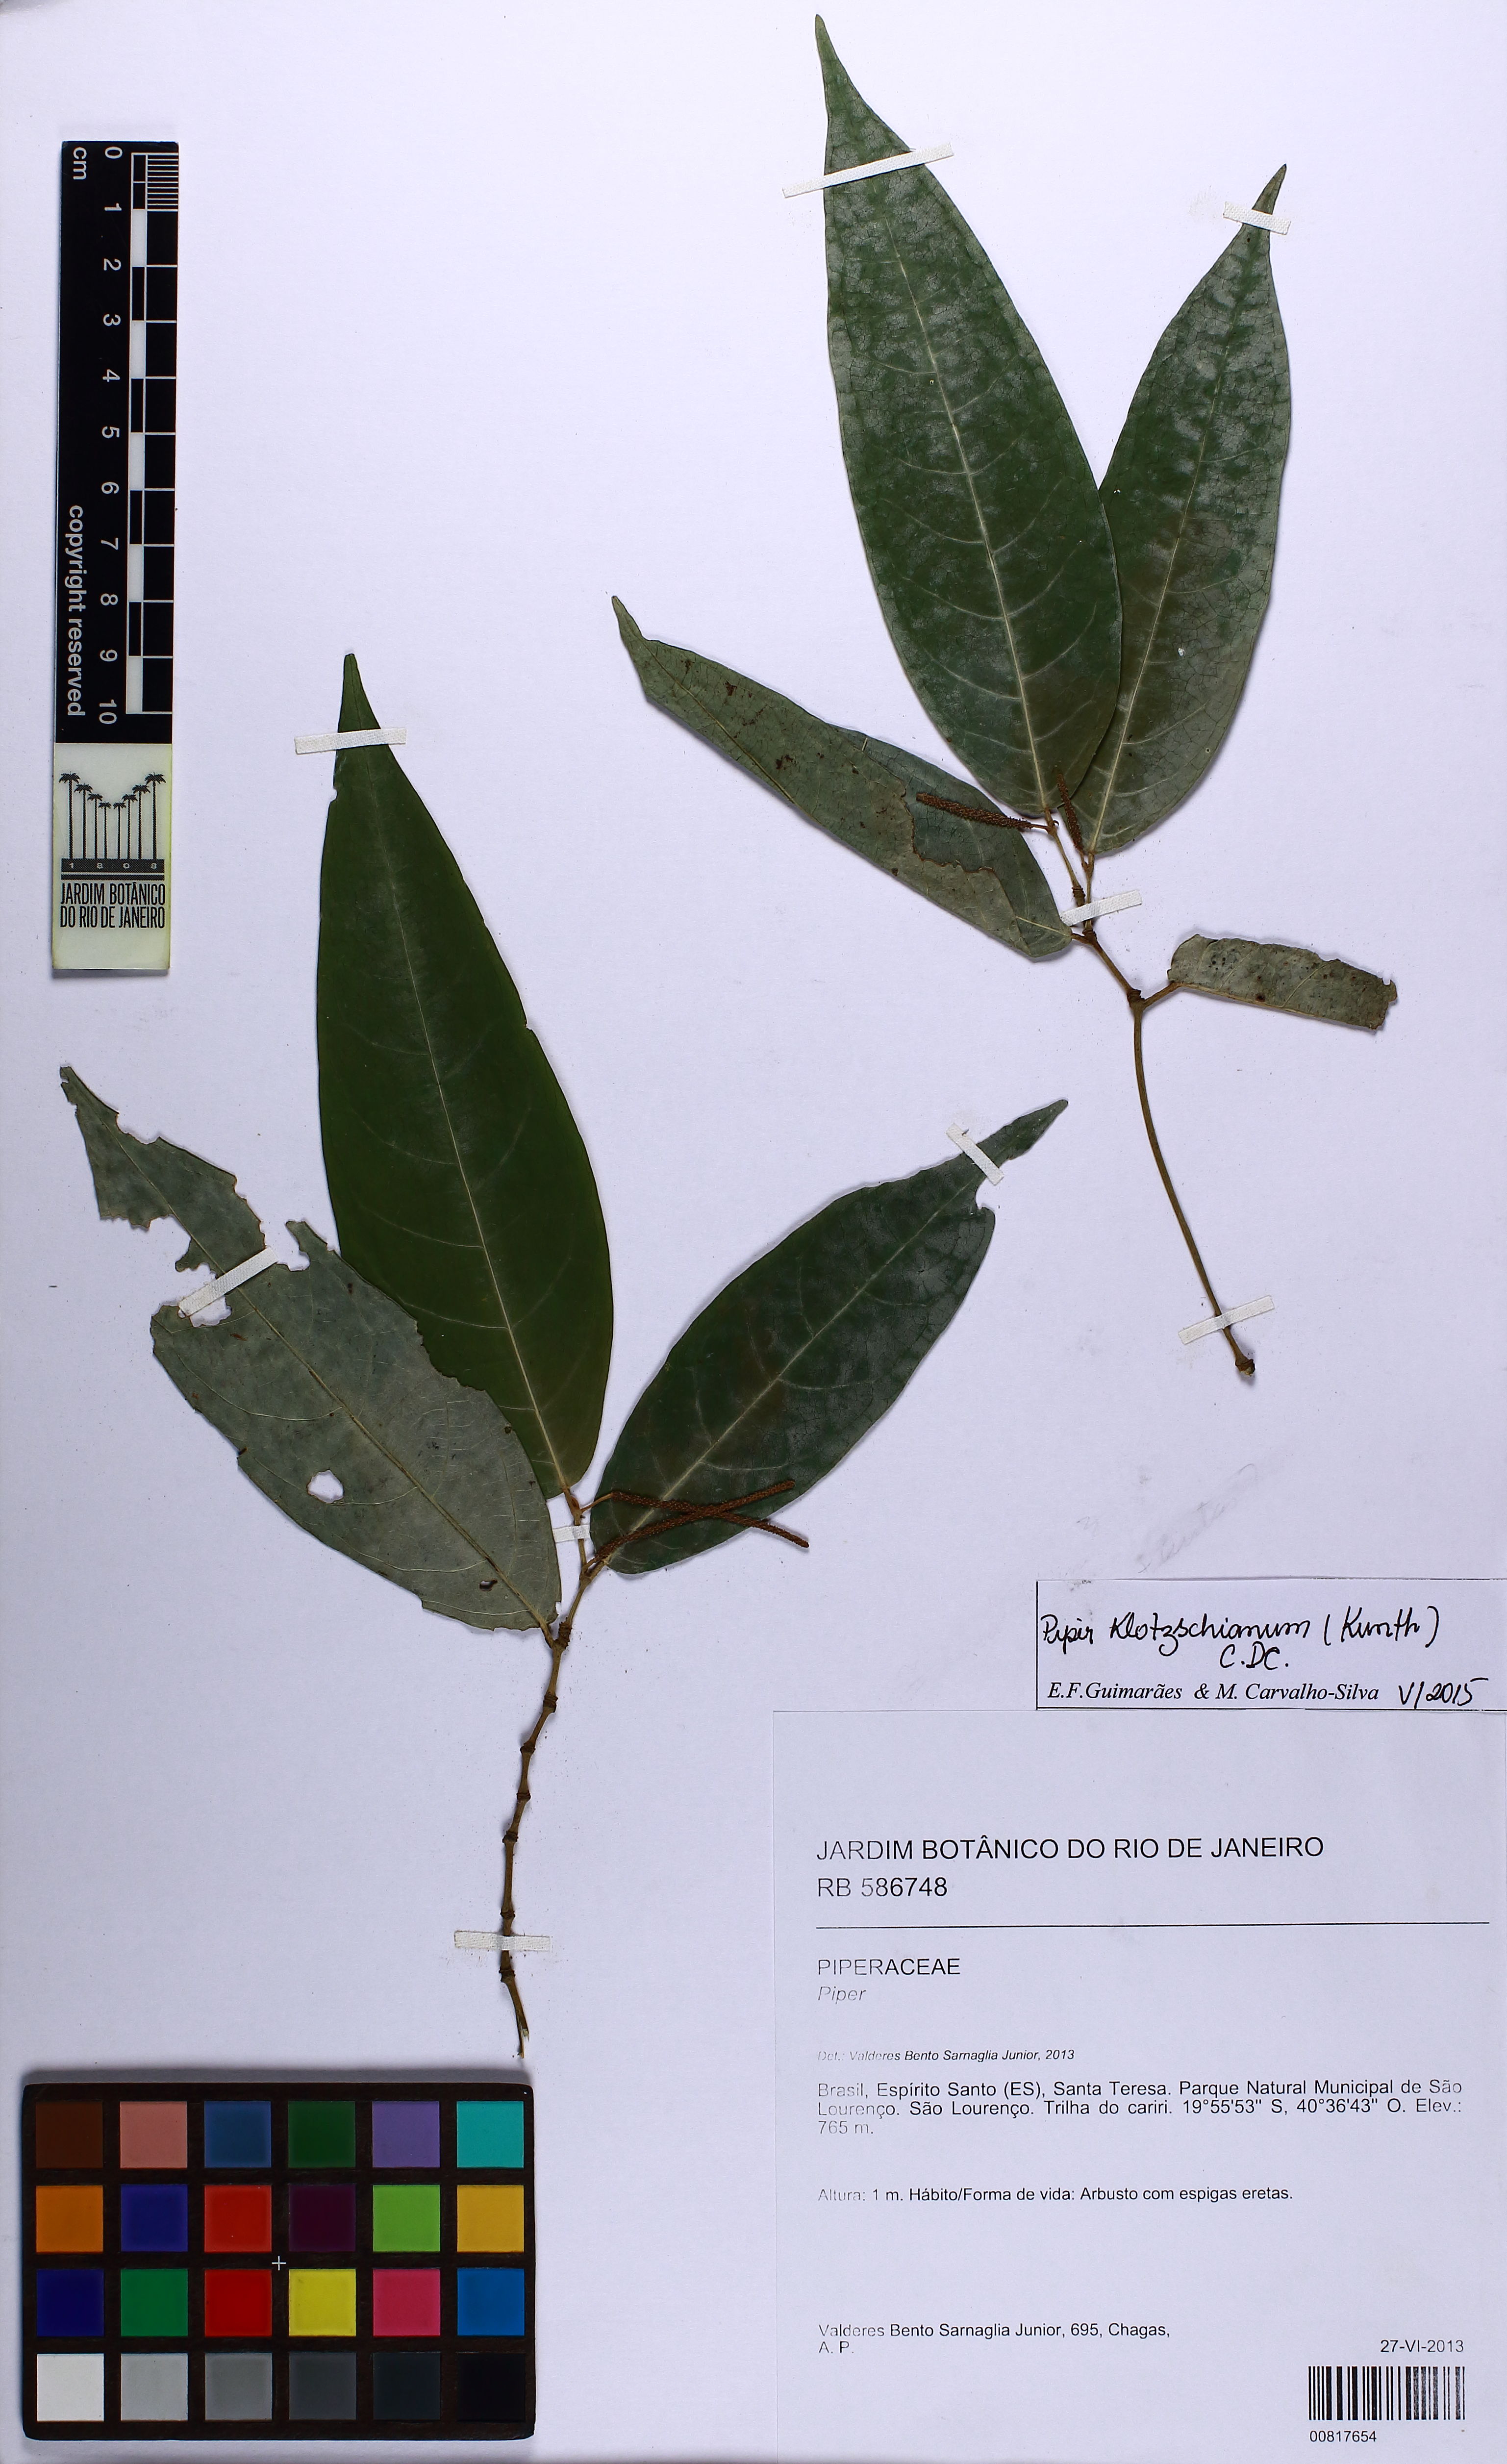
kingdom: Plantae
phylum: Tracheophyta
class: Magnoliopsida
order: Piperales
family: Piperaceae
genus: Piper
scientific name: Piper klotzschianum
